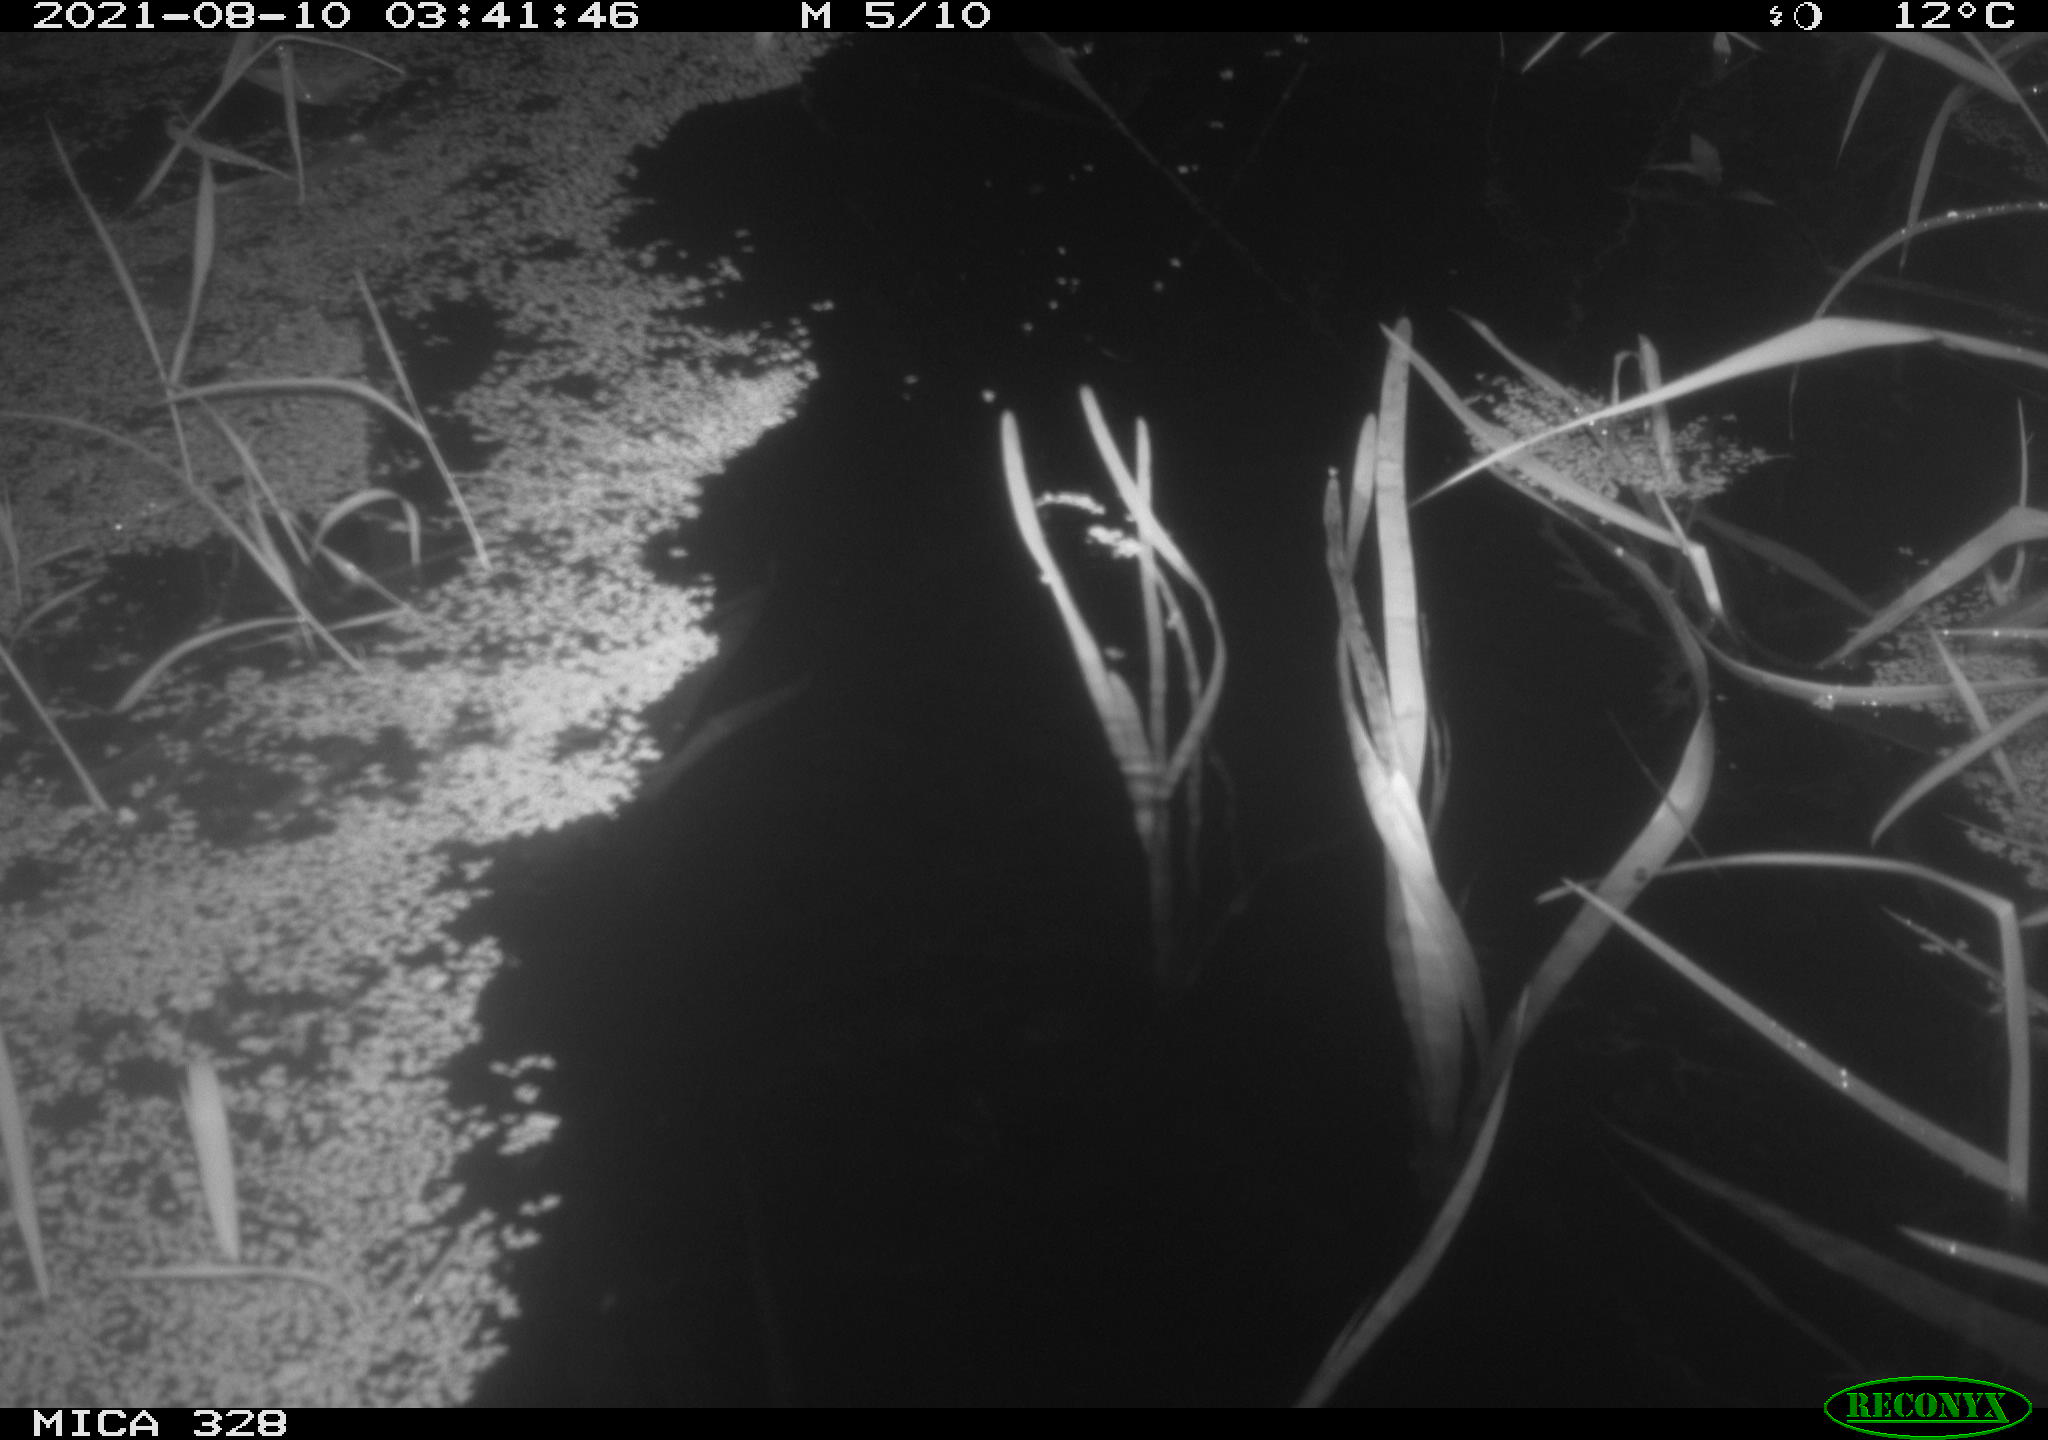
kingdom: Animalia
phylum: Chordata
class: Mammalia
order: Rodentia
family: Cricetidae
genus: Ondatra
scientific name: Ondatra zibethicus
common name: Muskrat
